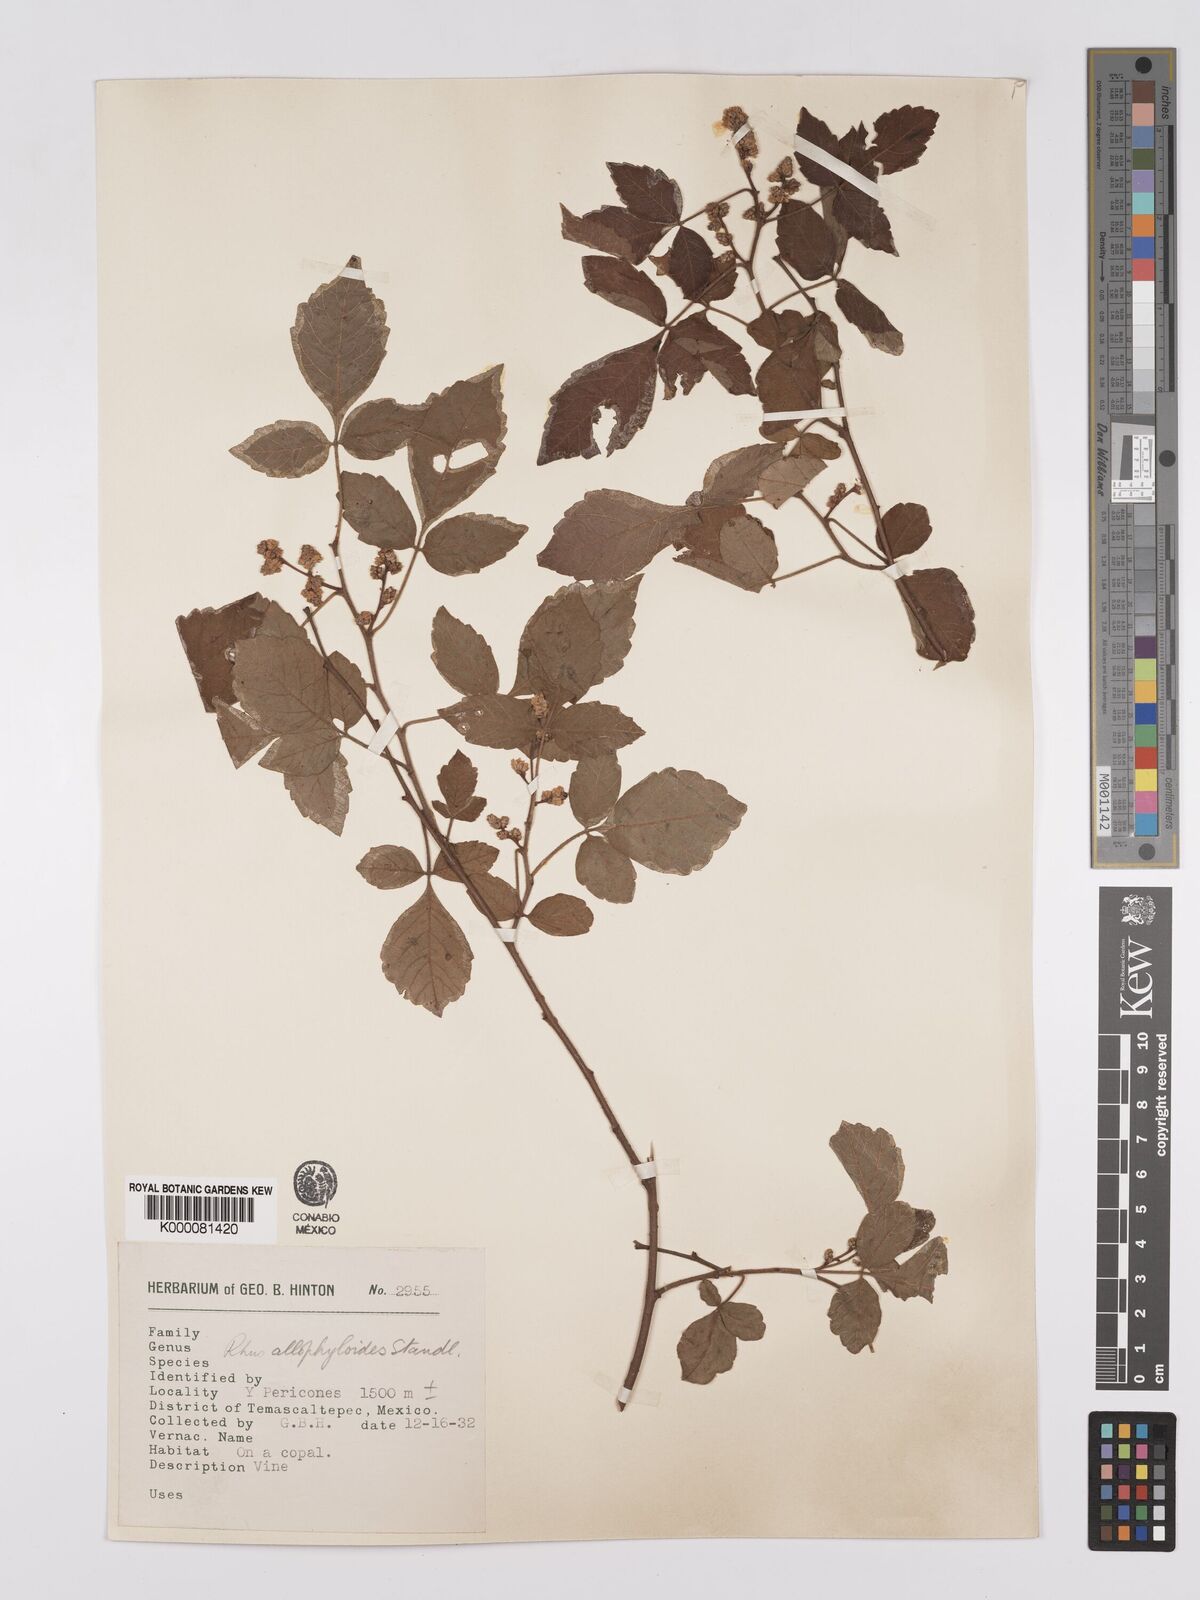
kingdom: Plantae
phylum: Tracheophyta
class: Magnoliopsida
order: Sapindales
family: Anacardiaceae
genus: Rhus
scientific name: Rhus allophyloides
